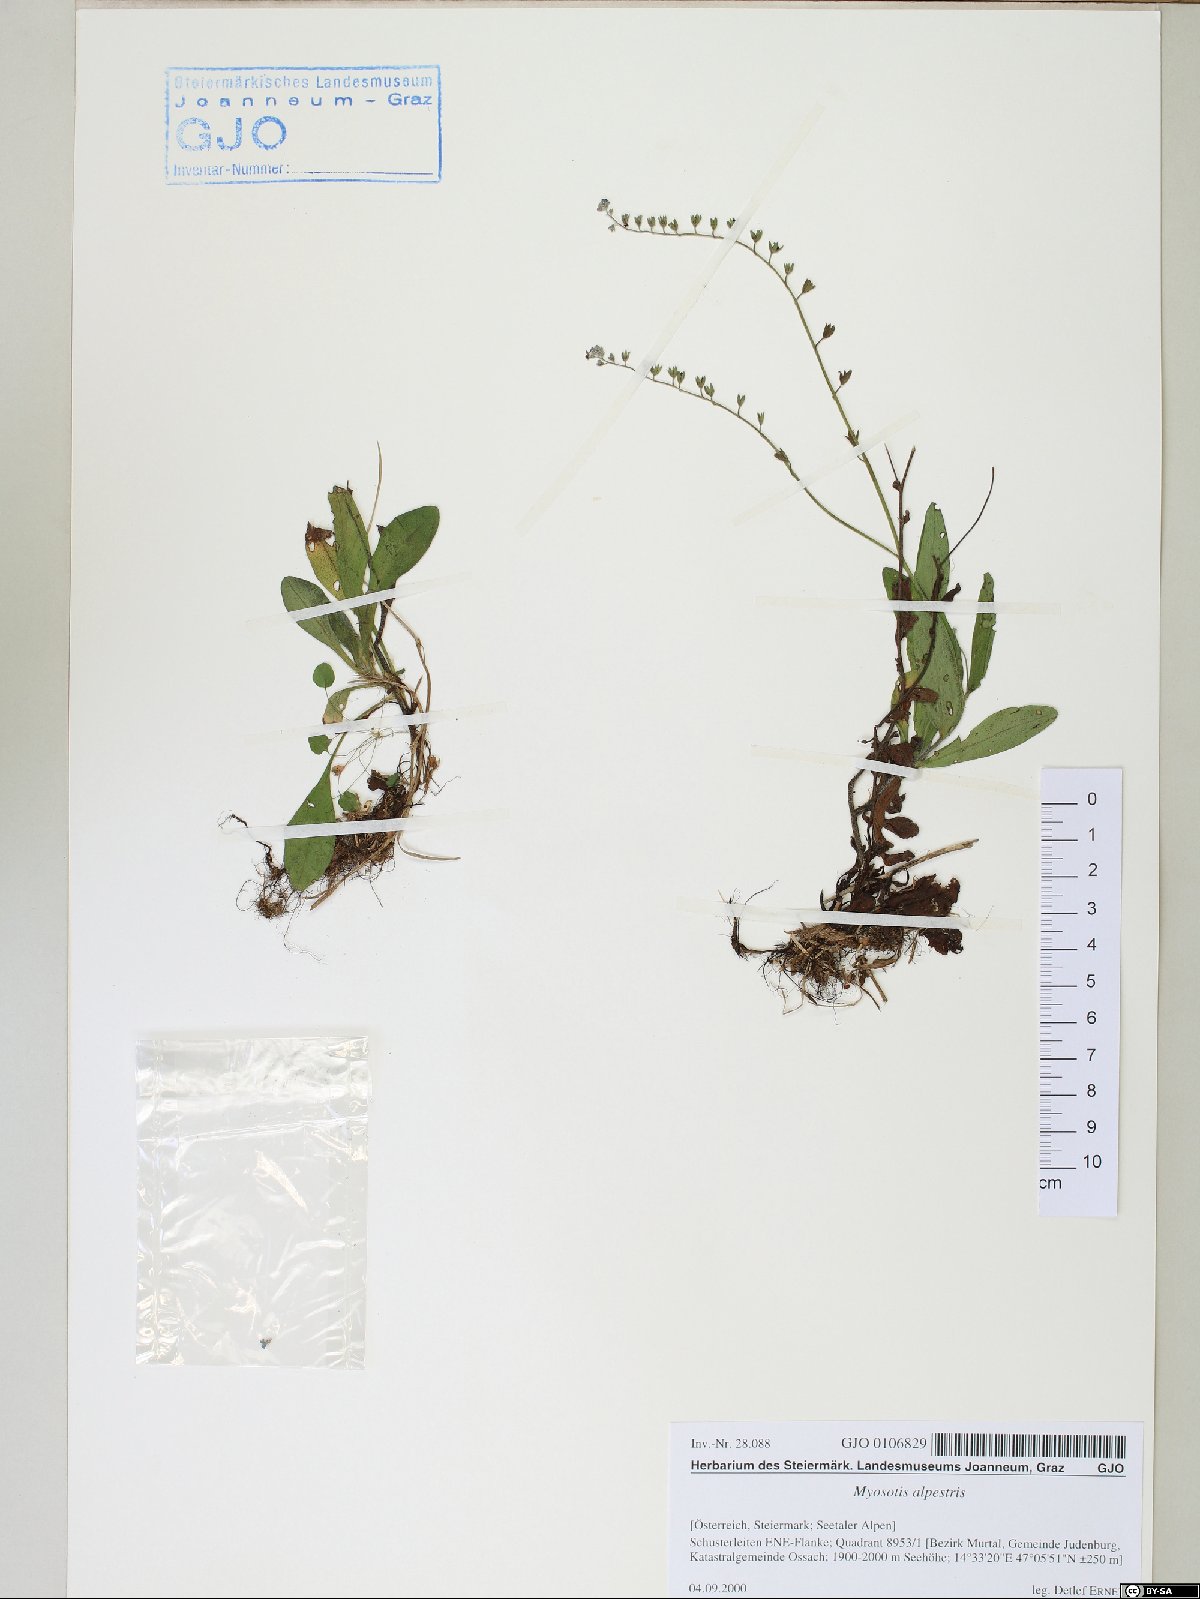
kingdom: Plantae
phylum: Tracheophyta
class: Magnoliopsida
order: Boraginales
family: Boraginaceae
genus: Myosotis
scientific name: Myosotis alpestris
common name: Alpine forget-me-not
